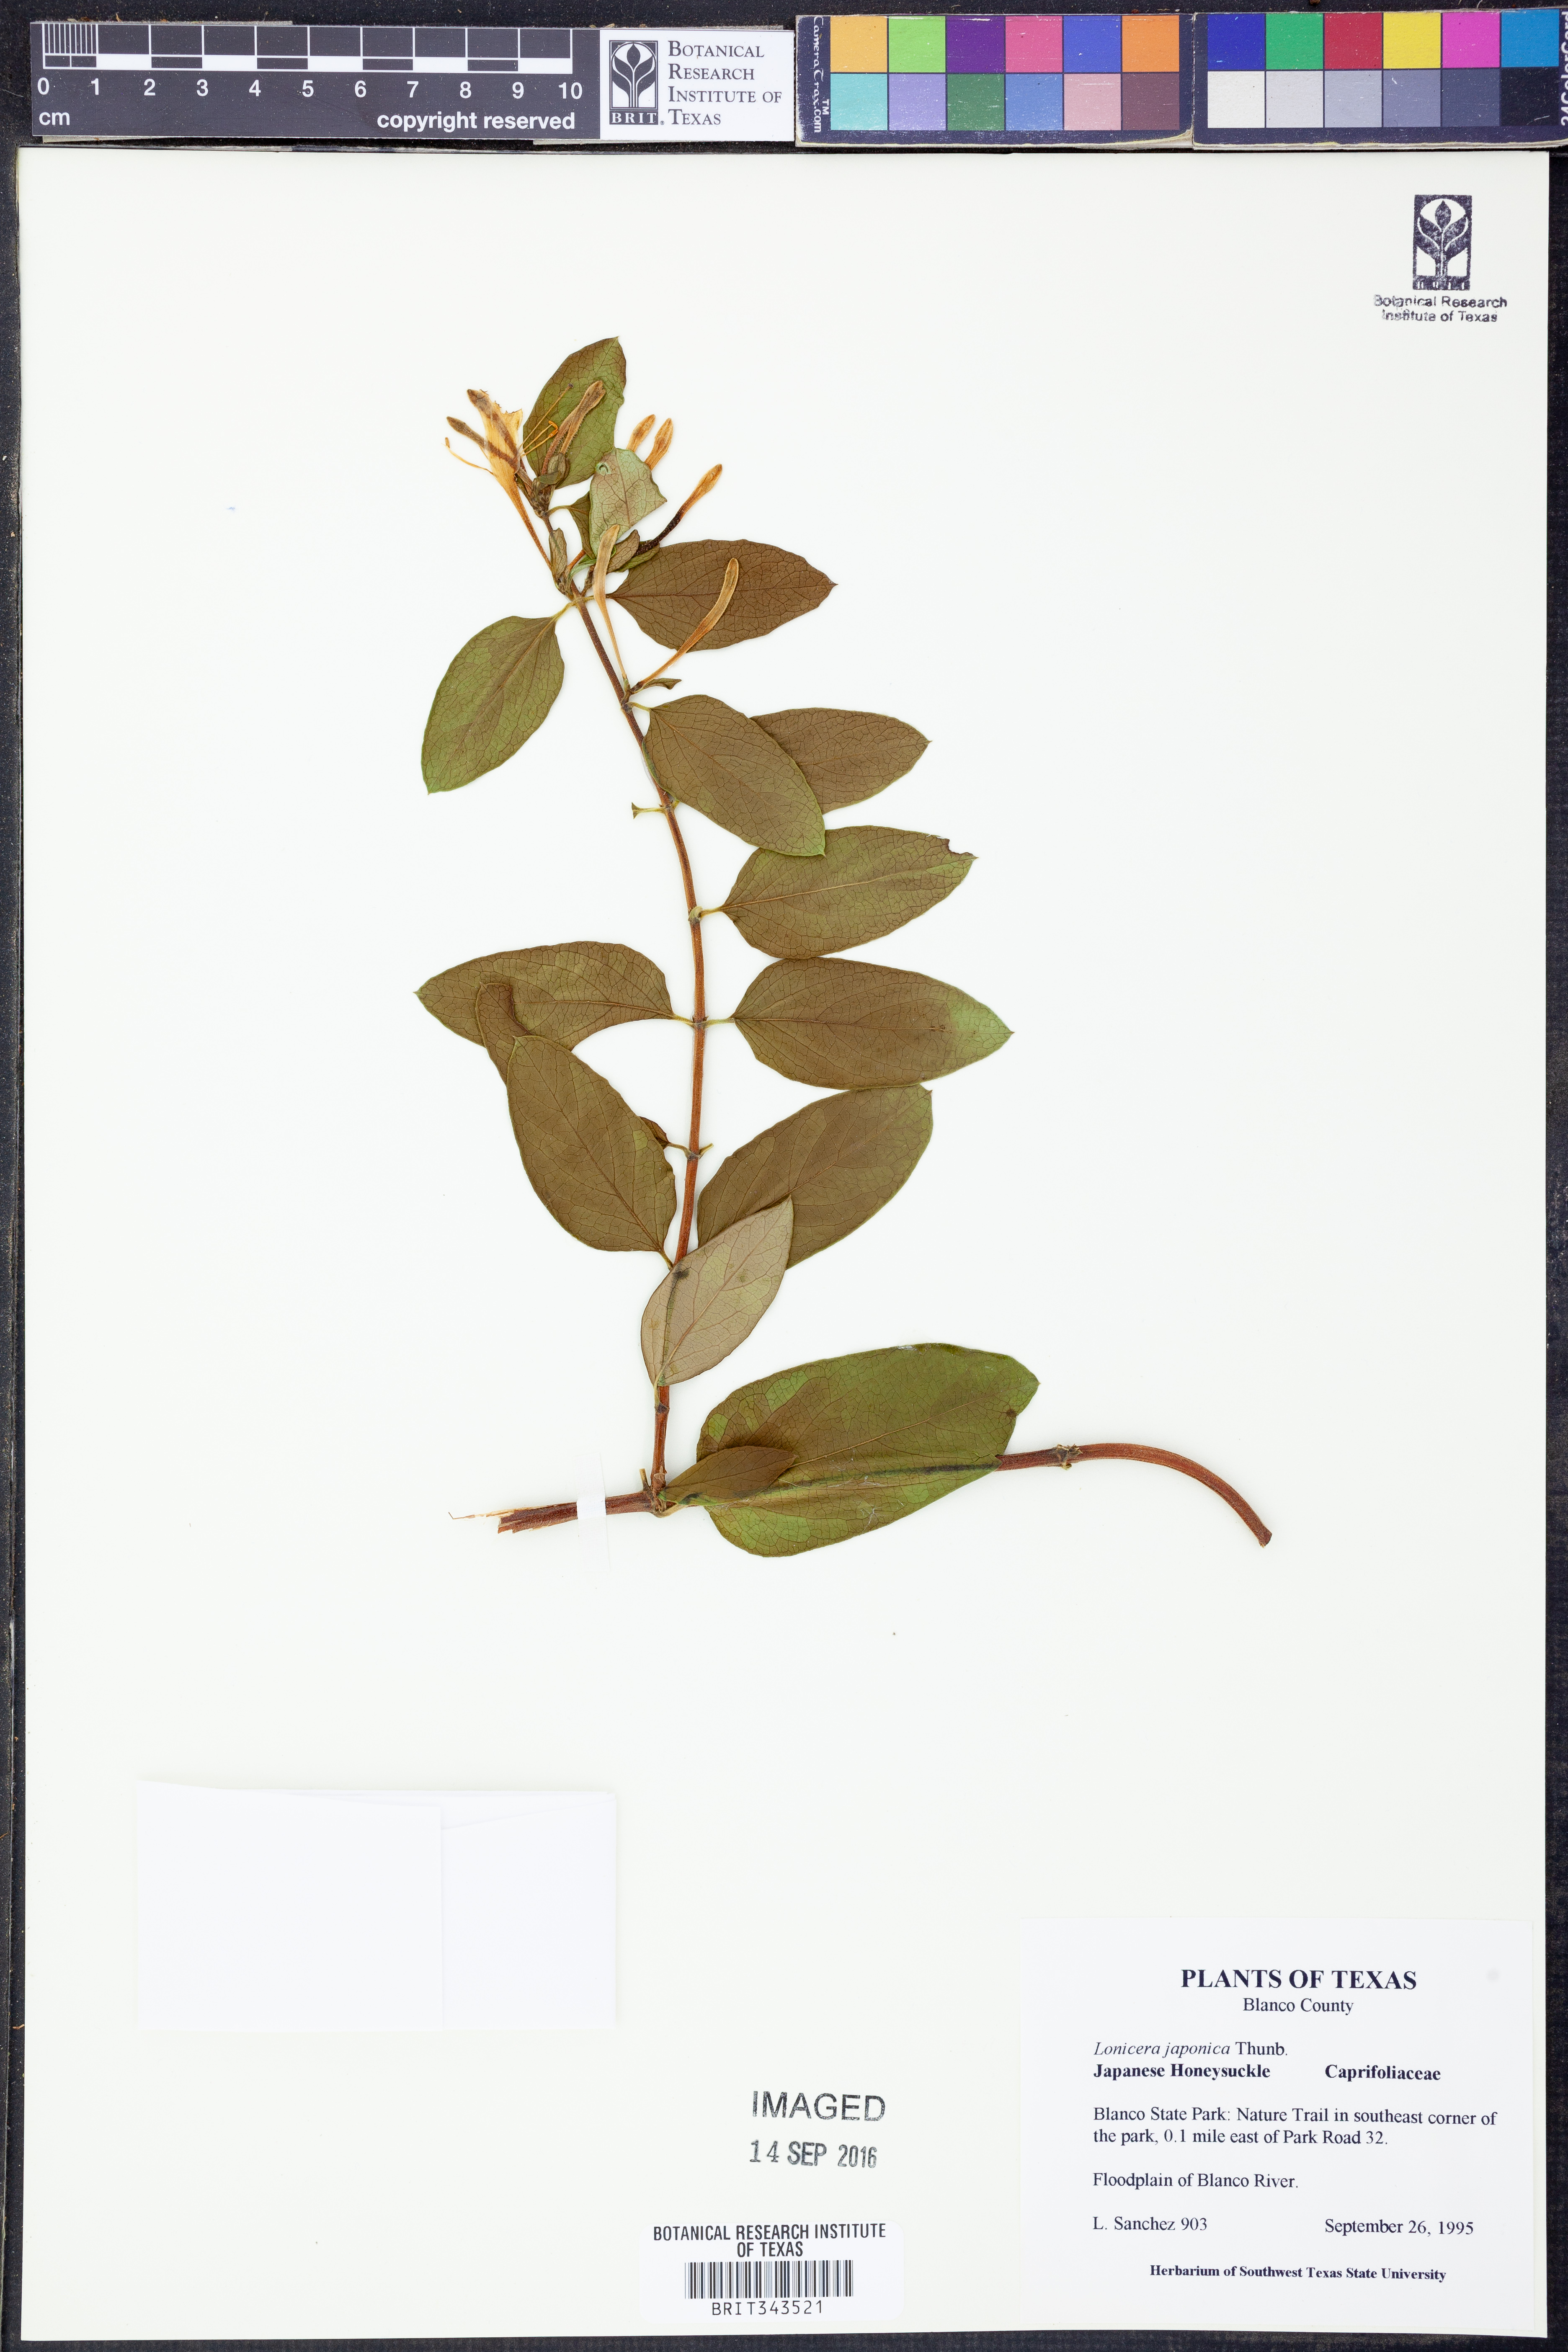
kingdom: Plantae
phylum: Tracheophyta
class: Magnoliopsida
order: Dipsacales
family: Caprifoliaceae
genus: Lonicera
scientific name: Lonicera japonica
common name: Japanese honeysuckle
